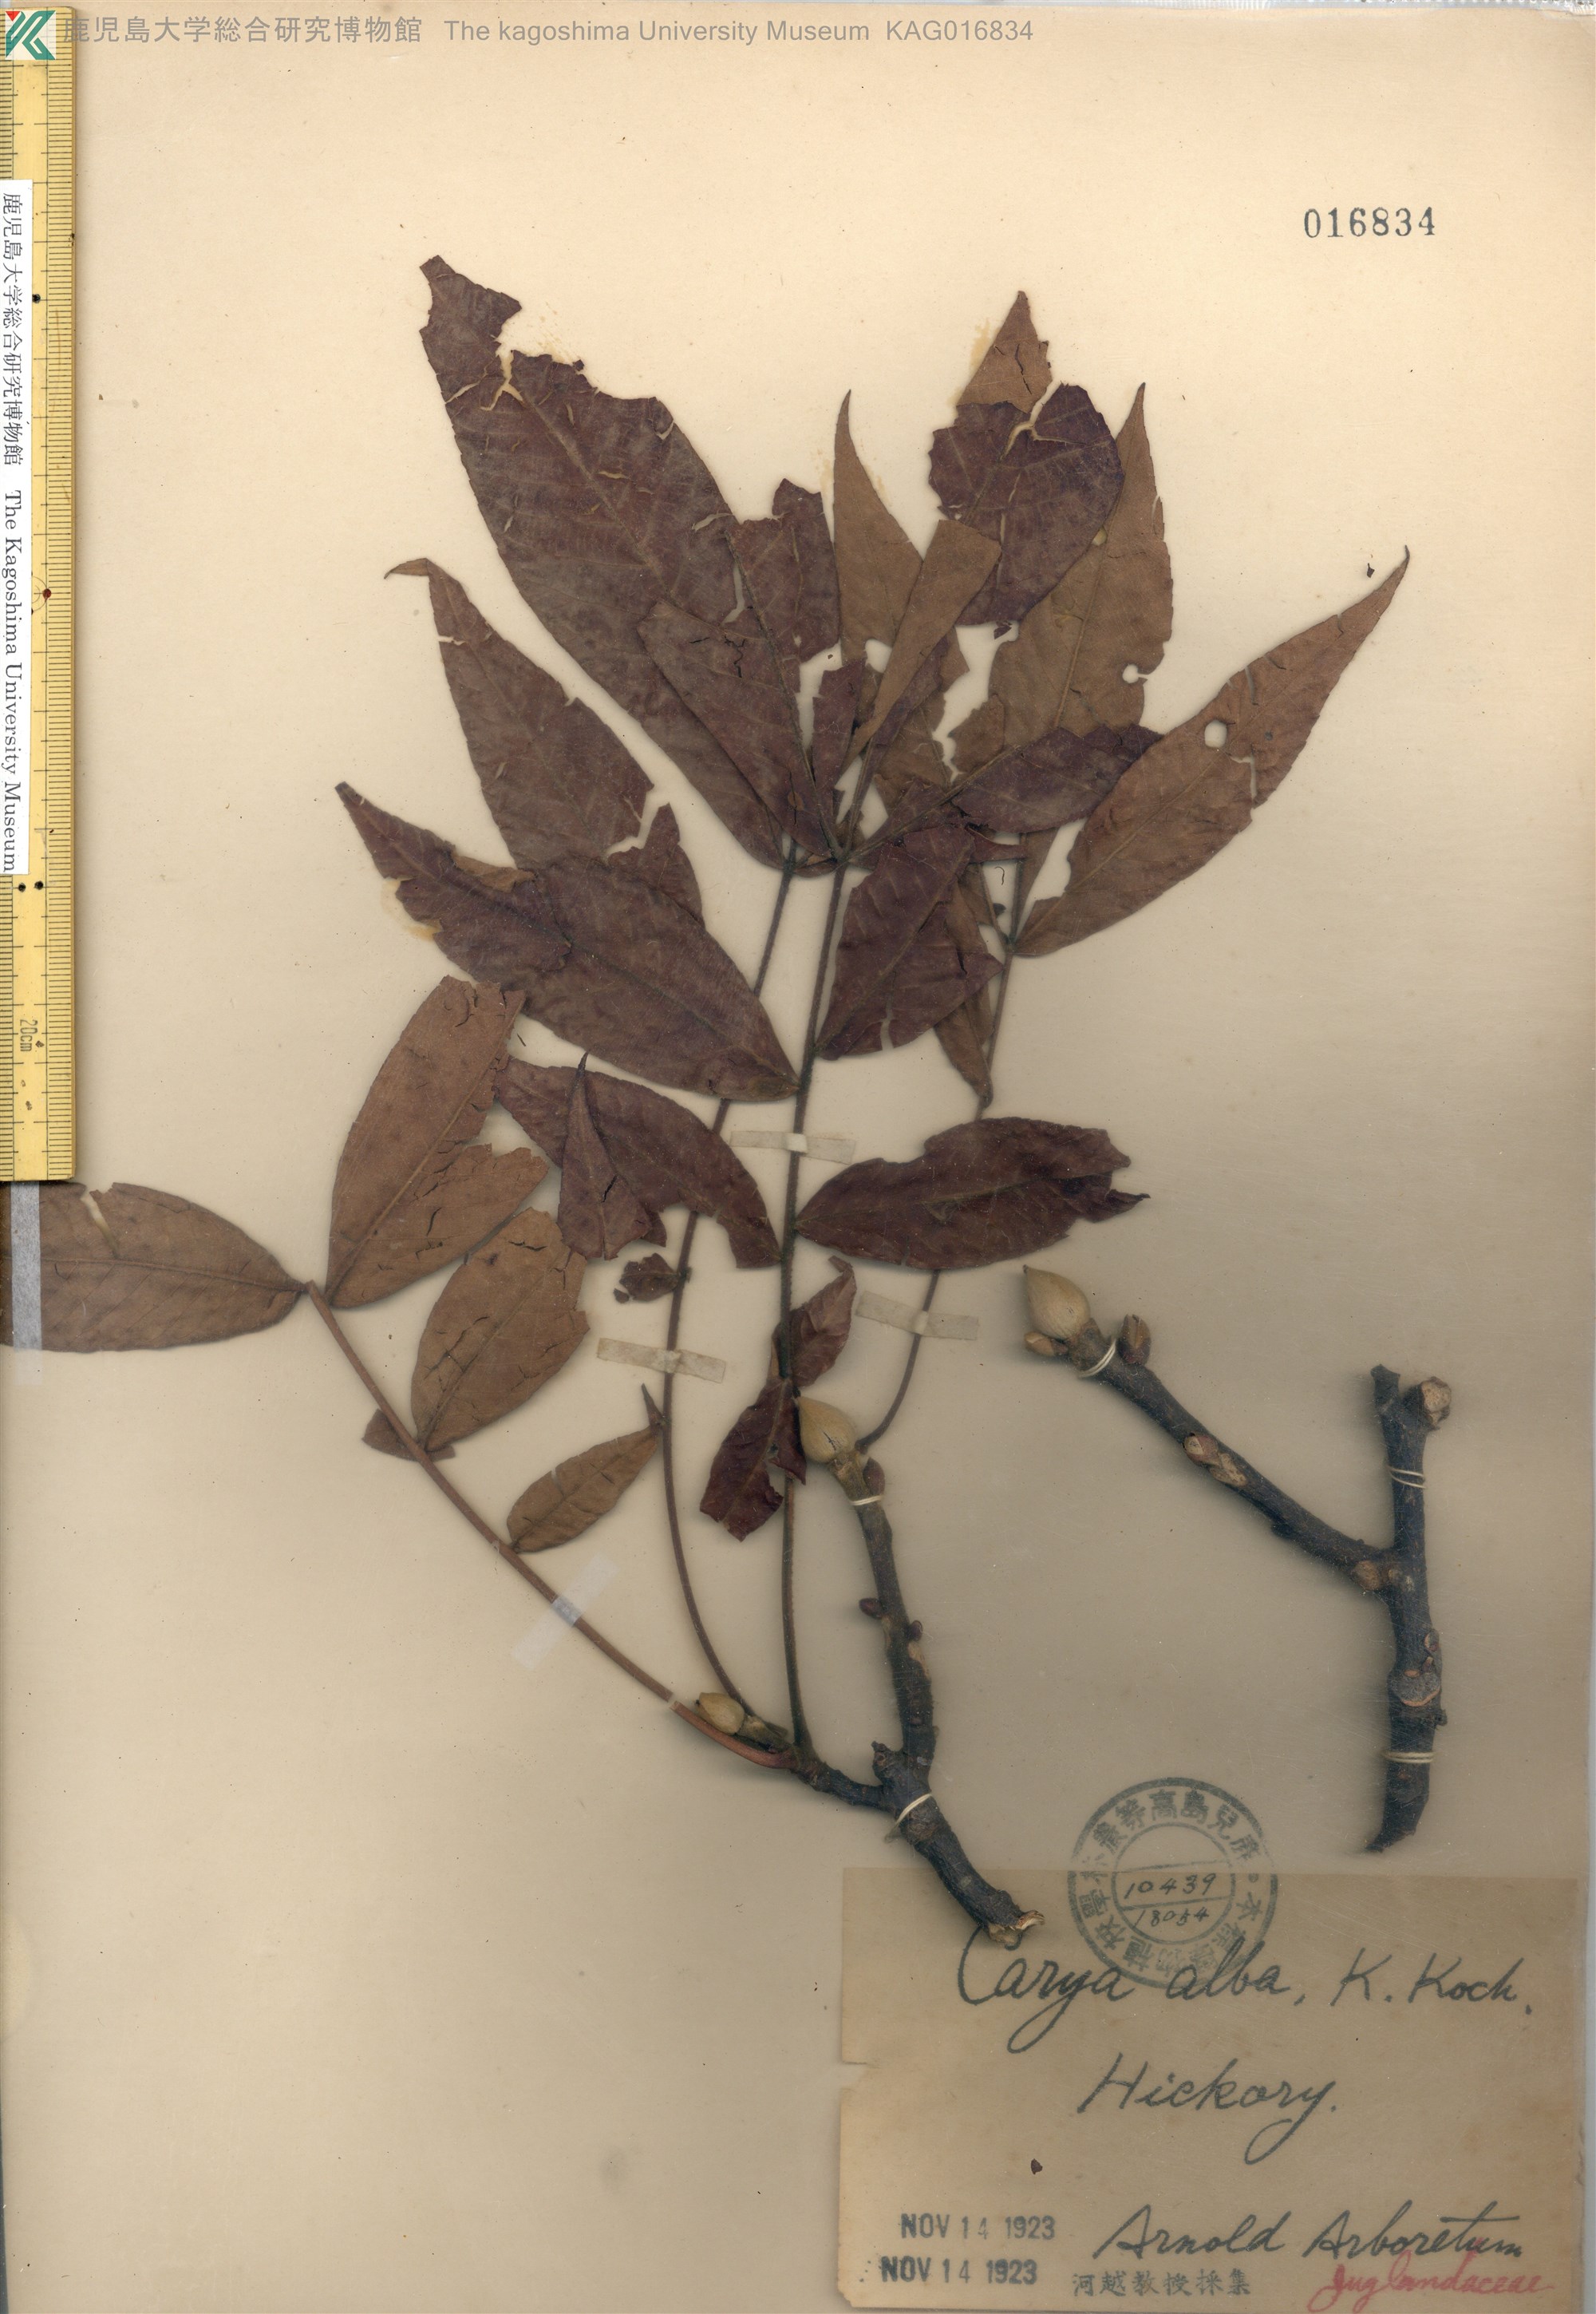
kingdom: Plantae
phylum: Tracheophyta
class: Magnoliopsida
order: Fagales
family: Juglandaceae
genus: Carya
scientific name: Carya alba
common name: Mockernut hickory
